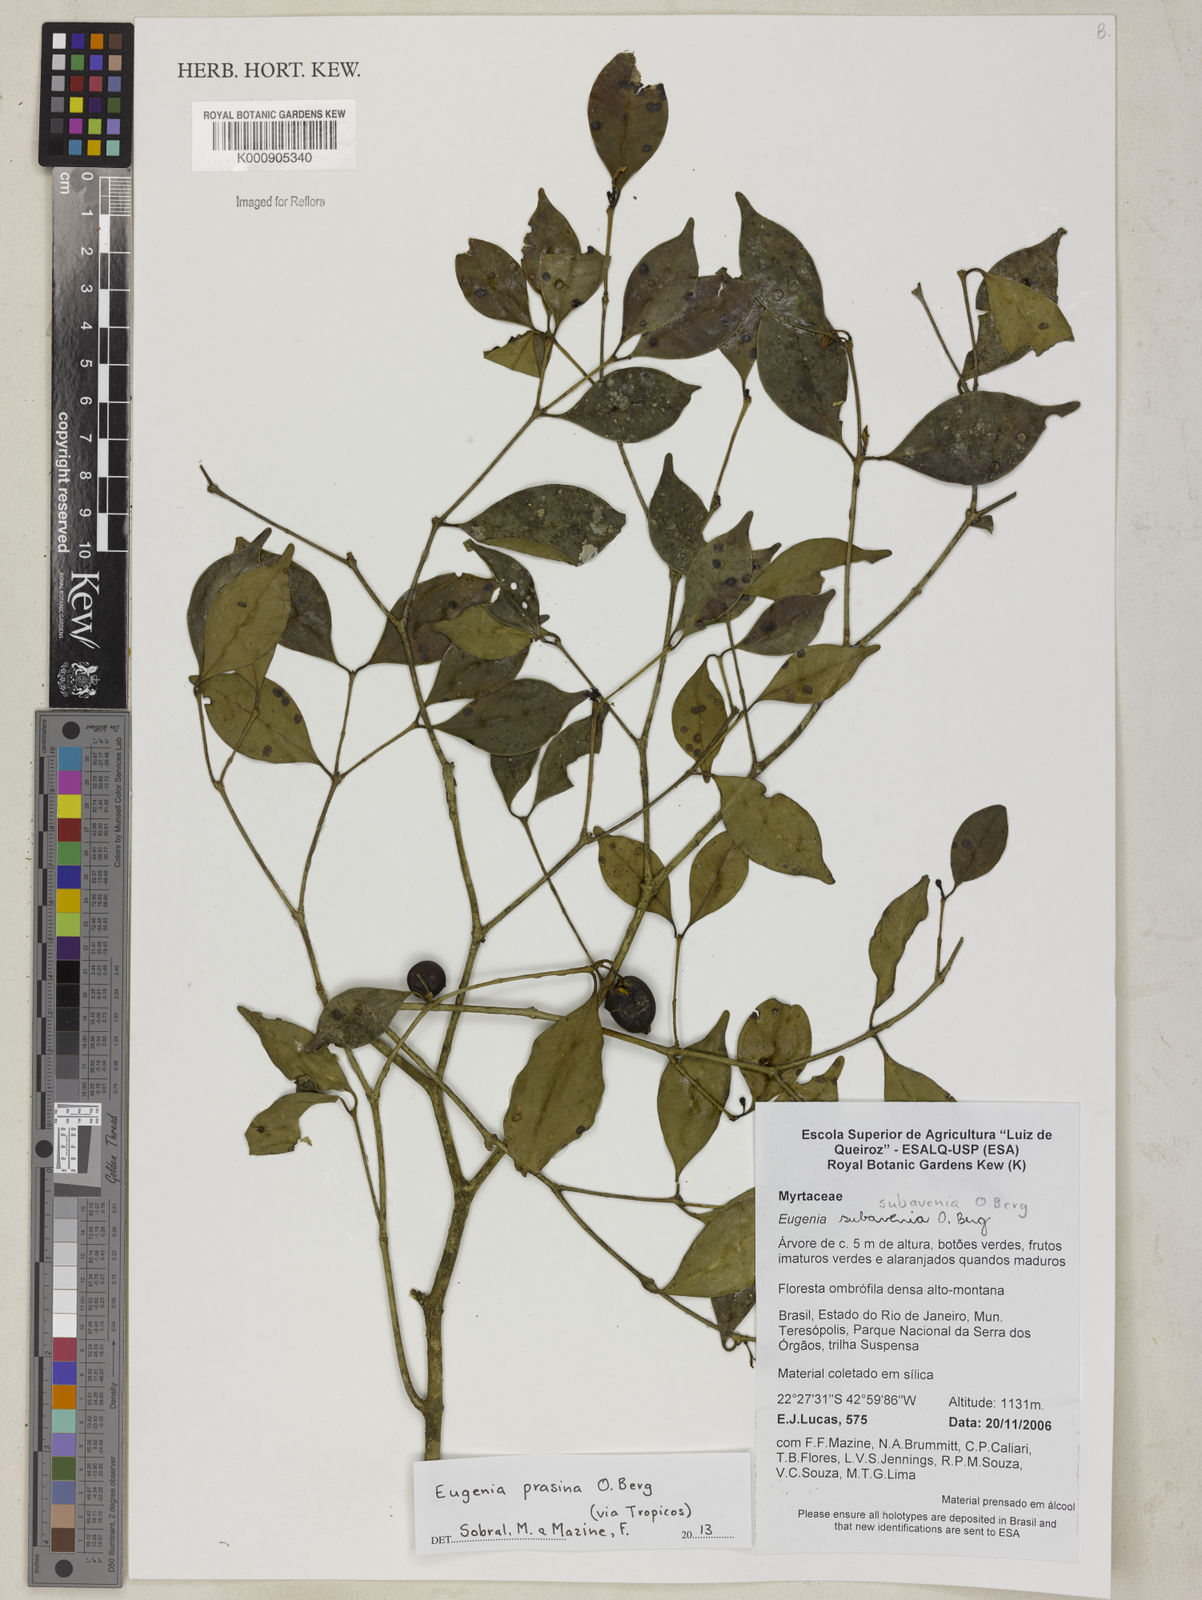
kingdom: Plantae
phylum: Tracheophyta
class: Magnoliopsida
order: Myrtales
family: Myrtaceae
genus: Eugenia
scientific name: Eugenia prasina
